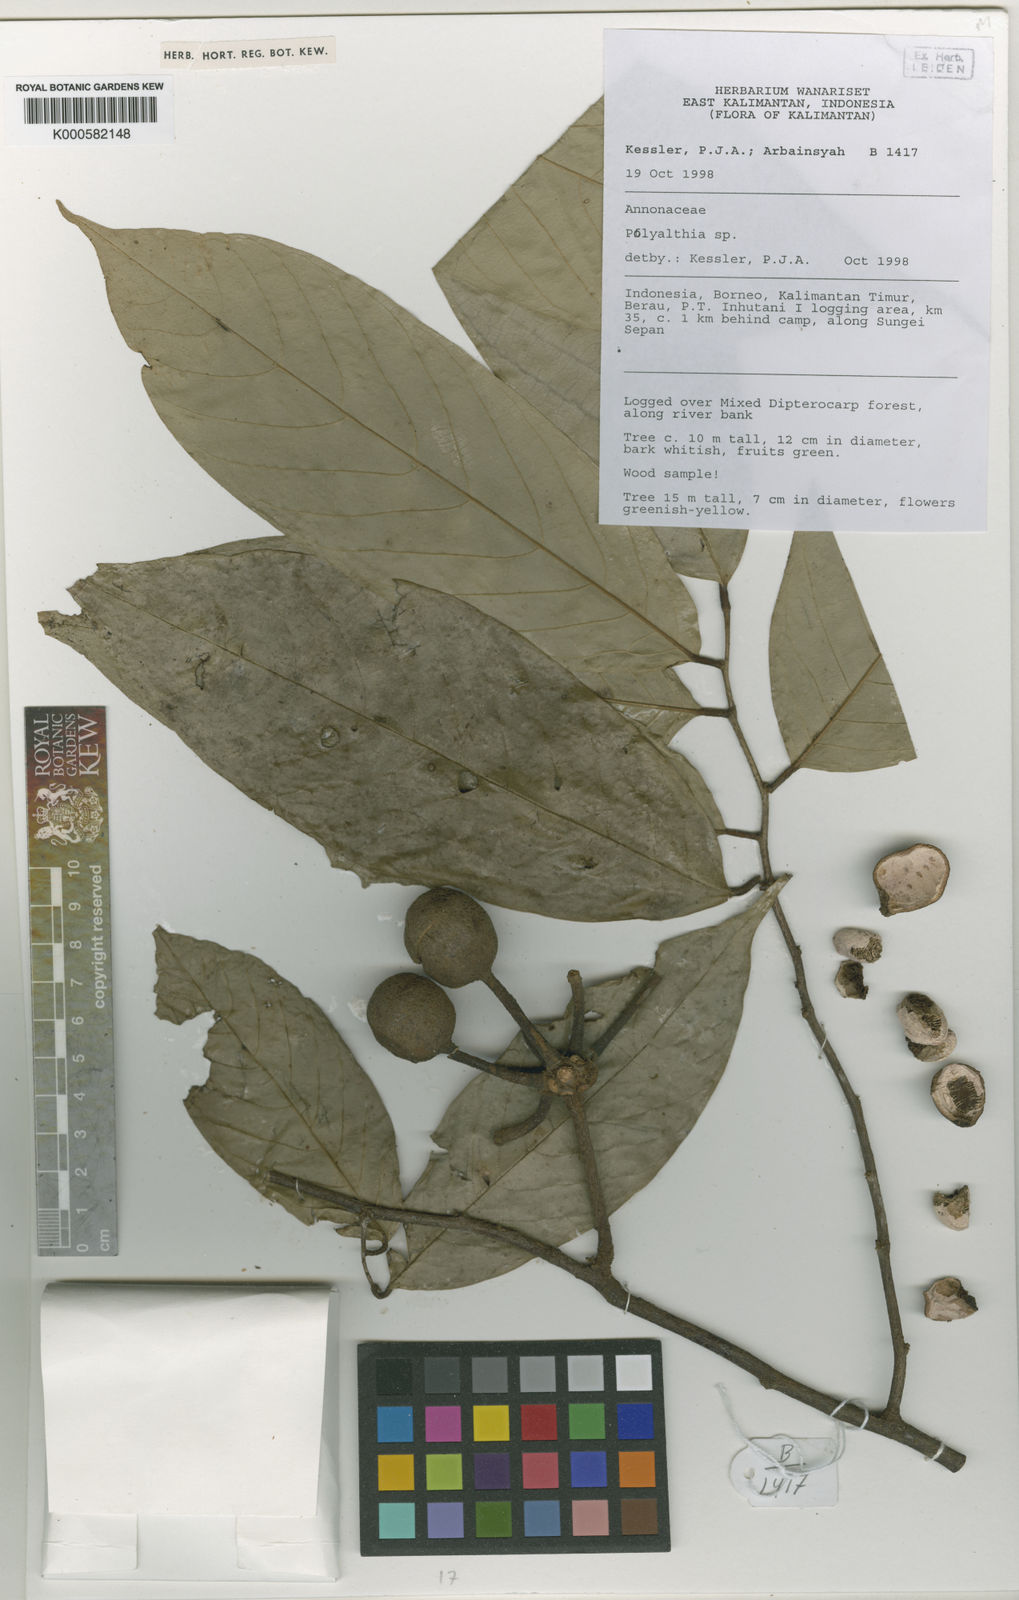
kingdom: Plantae
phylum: Tracheophyta
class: Magnoliopsida
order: Magnoliales
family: Annonaceae
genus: Polyalthia
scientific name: Polyalthia
